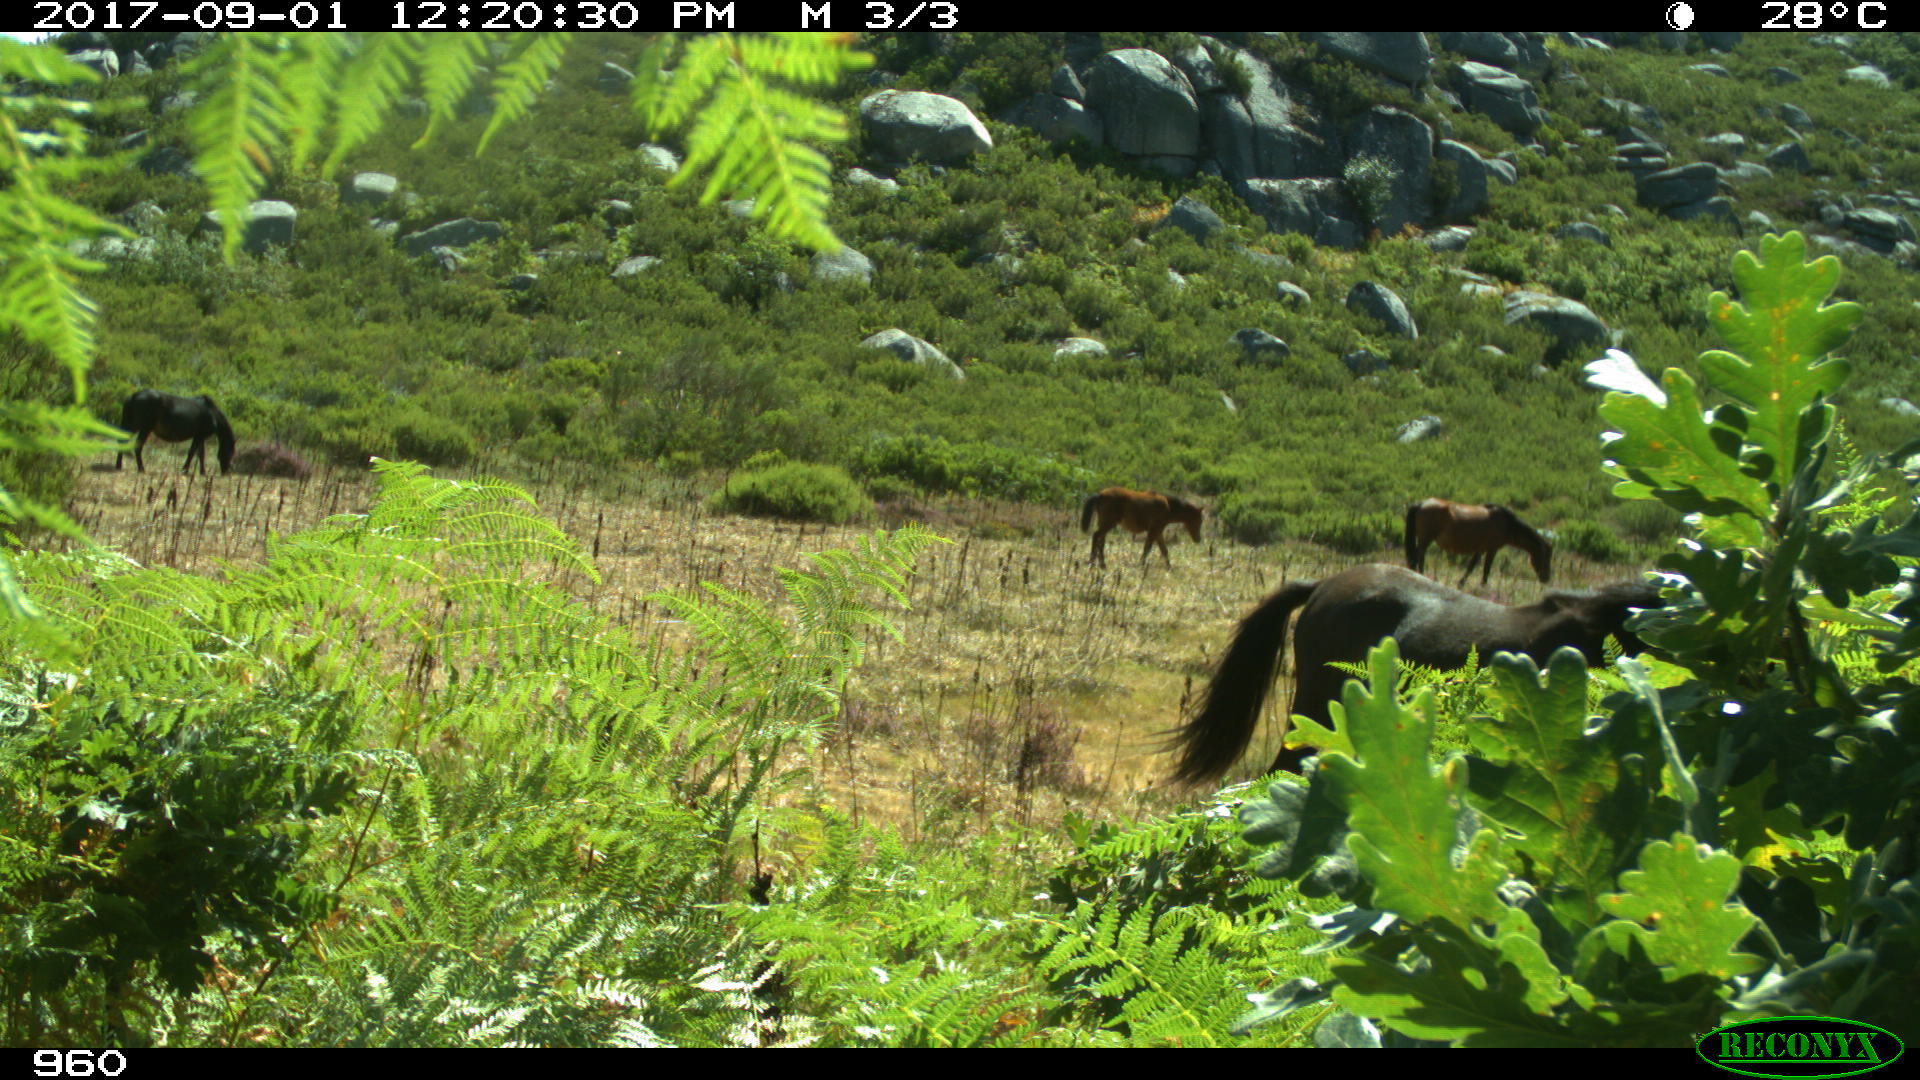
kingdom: Animalia
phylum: Chordata
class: Mammalia
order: Perissodactyla
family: Equidae
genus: Equus
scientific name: Equus caballus
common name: Horse
